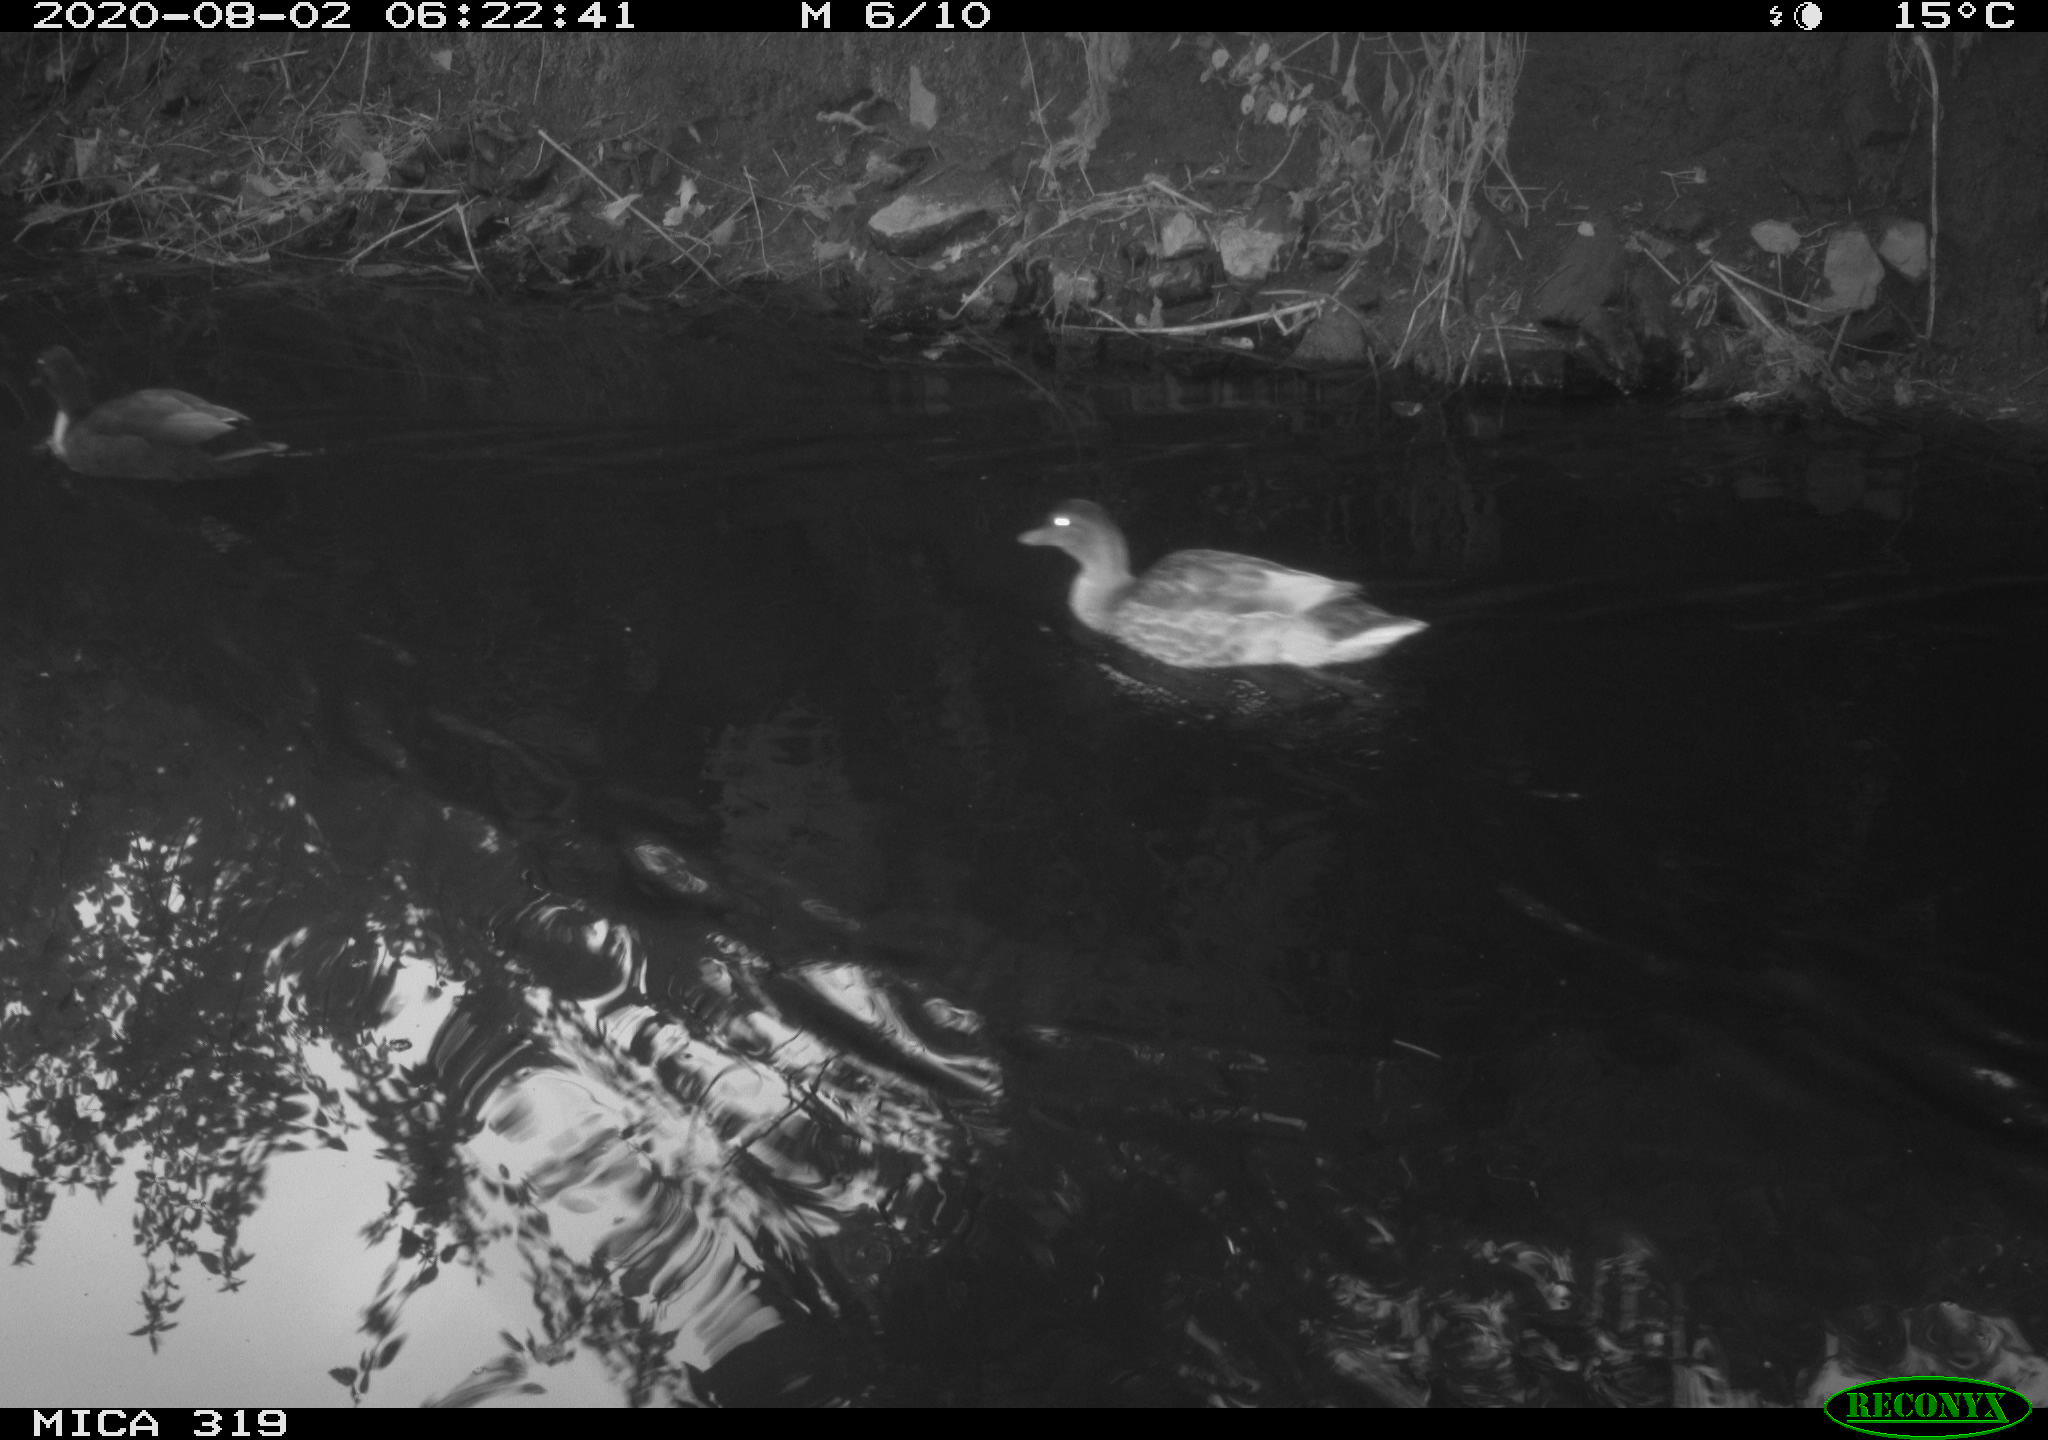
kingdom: Animalia
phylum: Chordata
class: Aves
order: Anseriformes
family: Anatidae
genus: Anas
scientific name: Anas platyrhynchos
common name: Mallard
